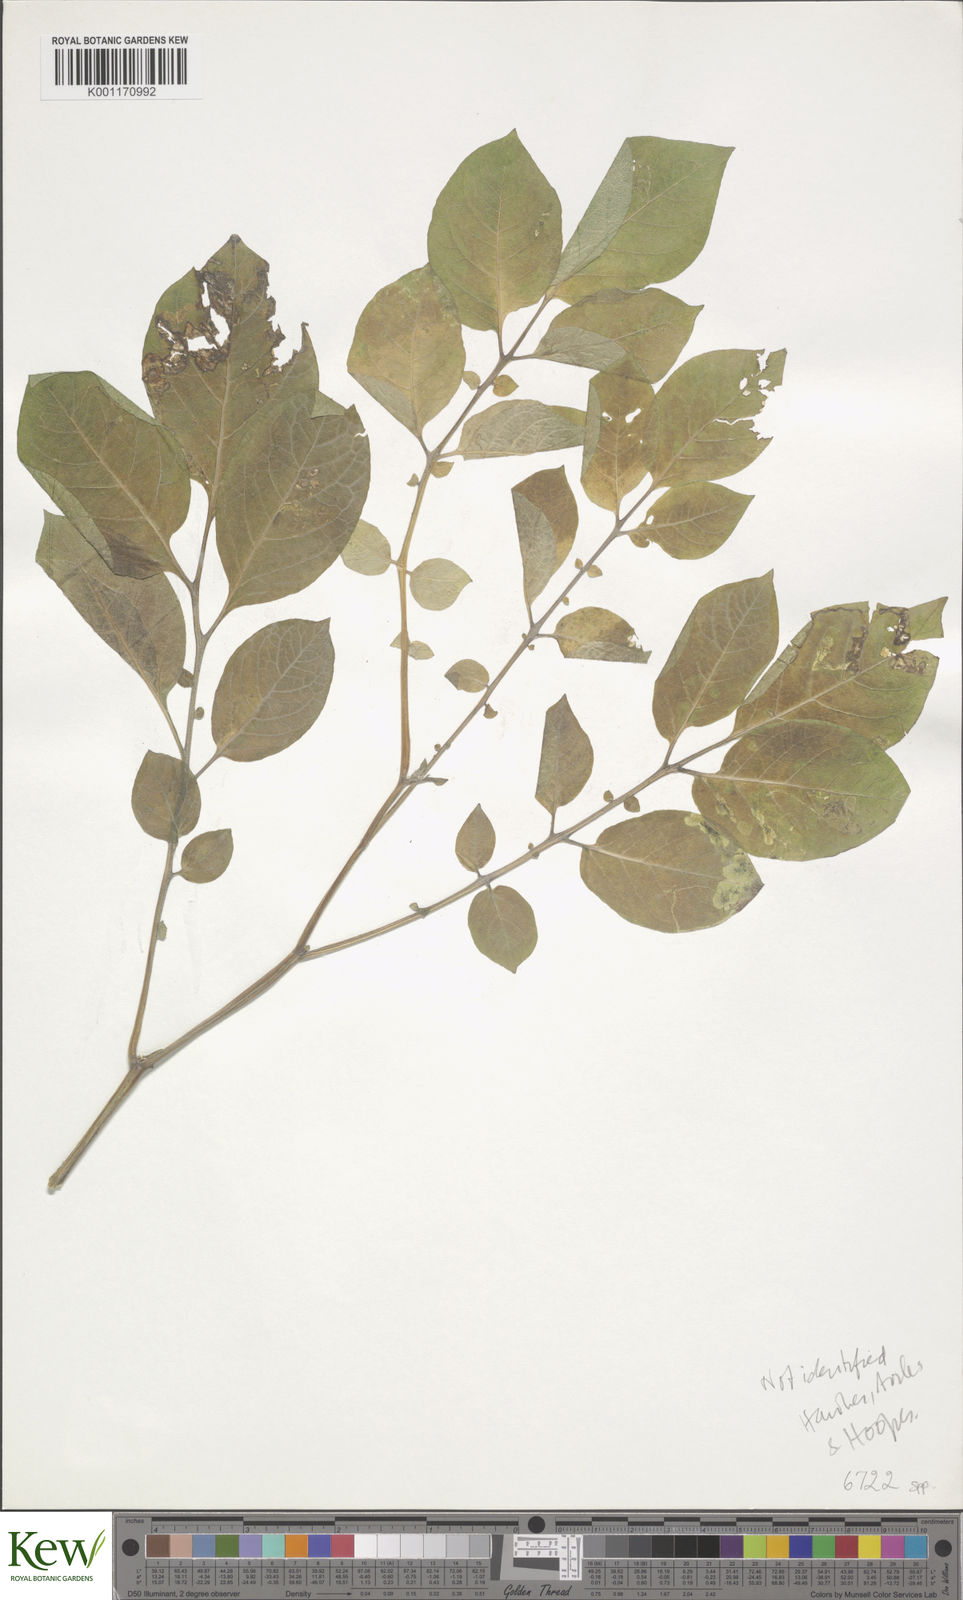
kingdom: Plantae
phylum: Tracheophyta
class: Magnoliopsida
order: Solanales
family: Solanaceae
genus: Solanum
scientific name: Solanum
